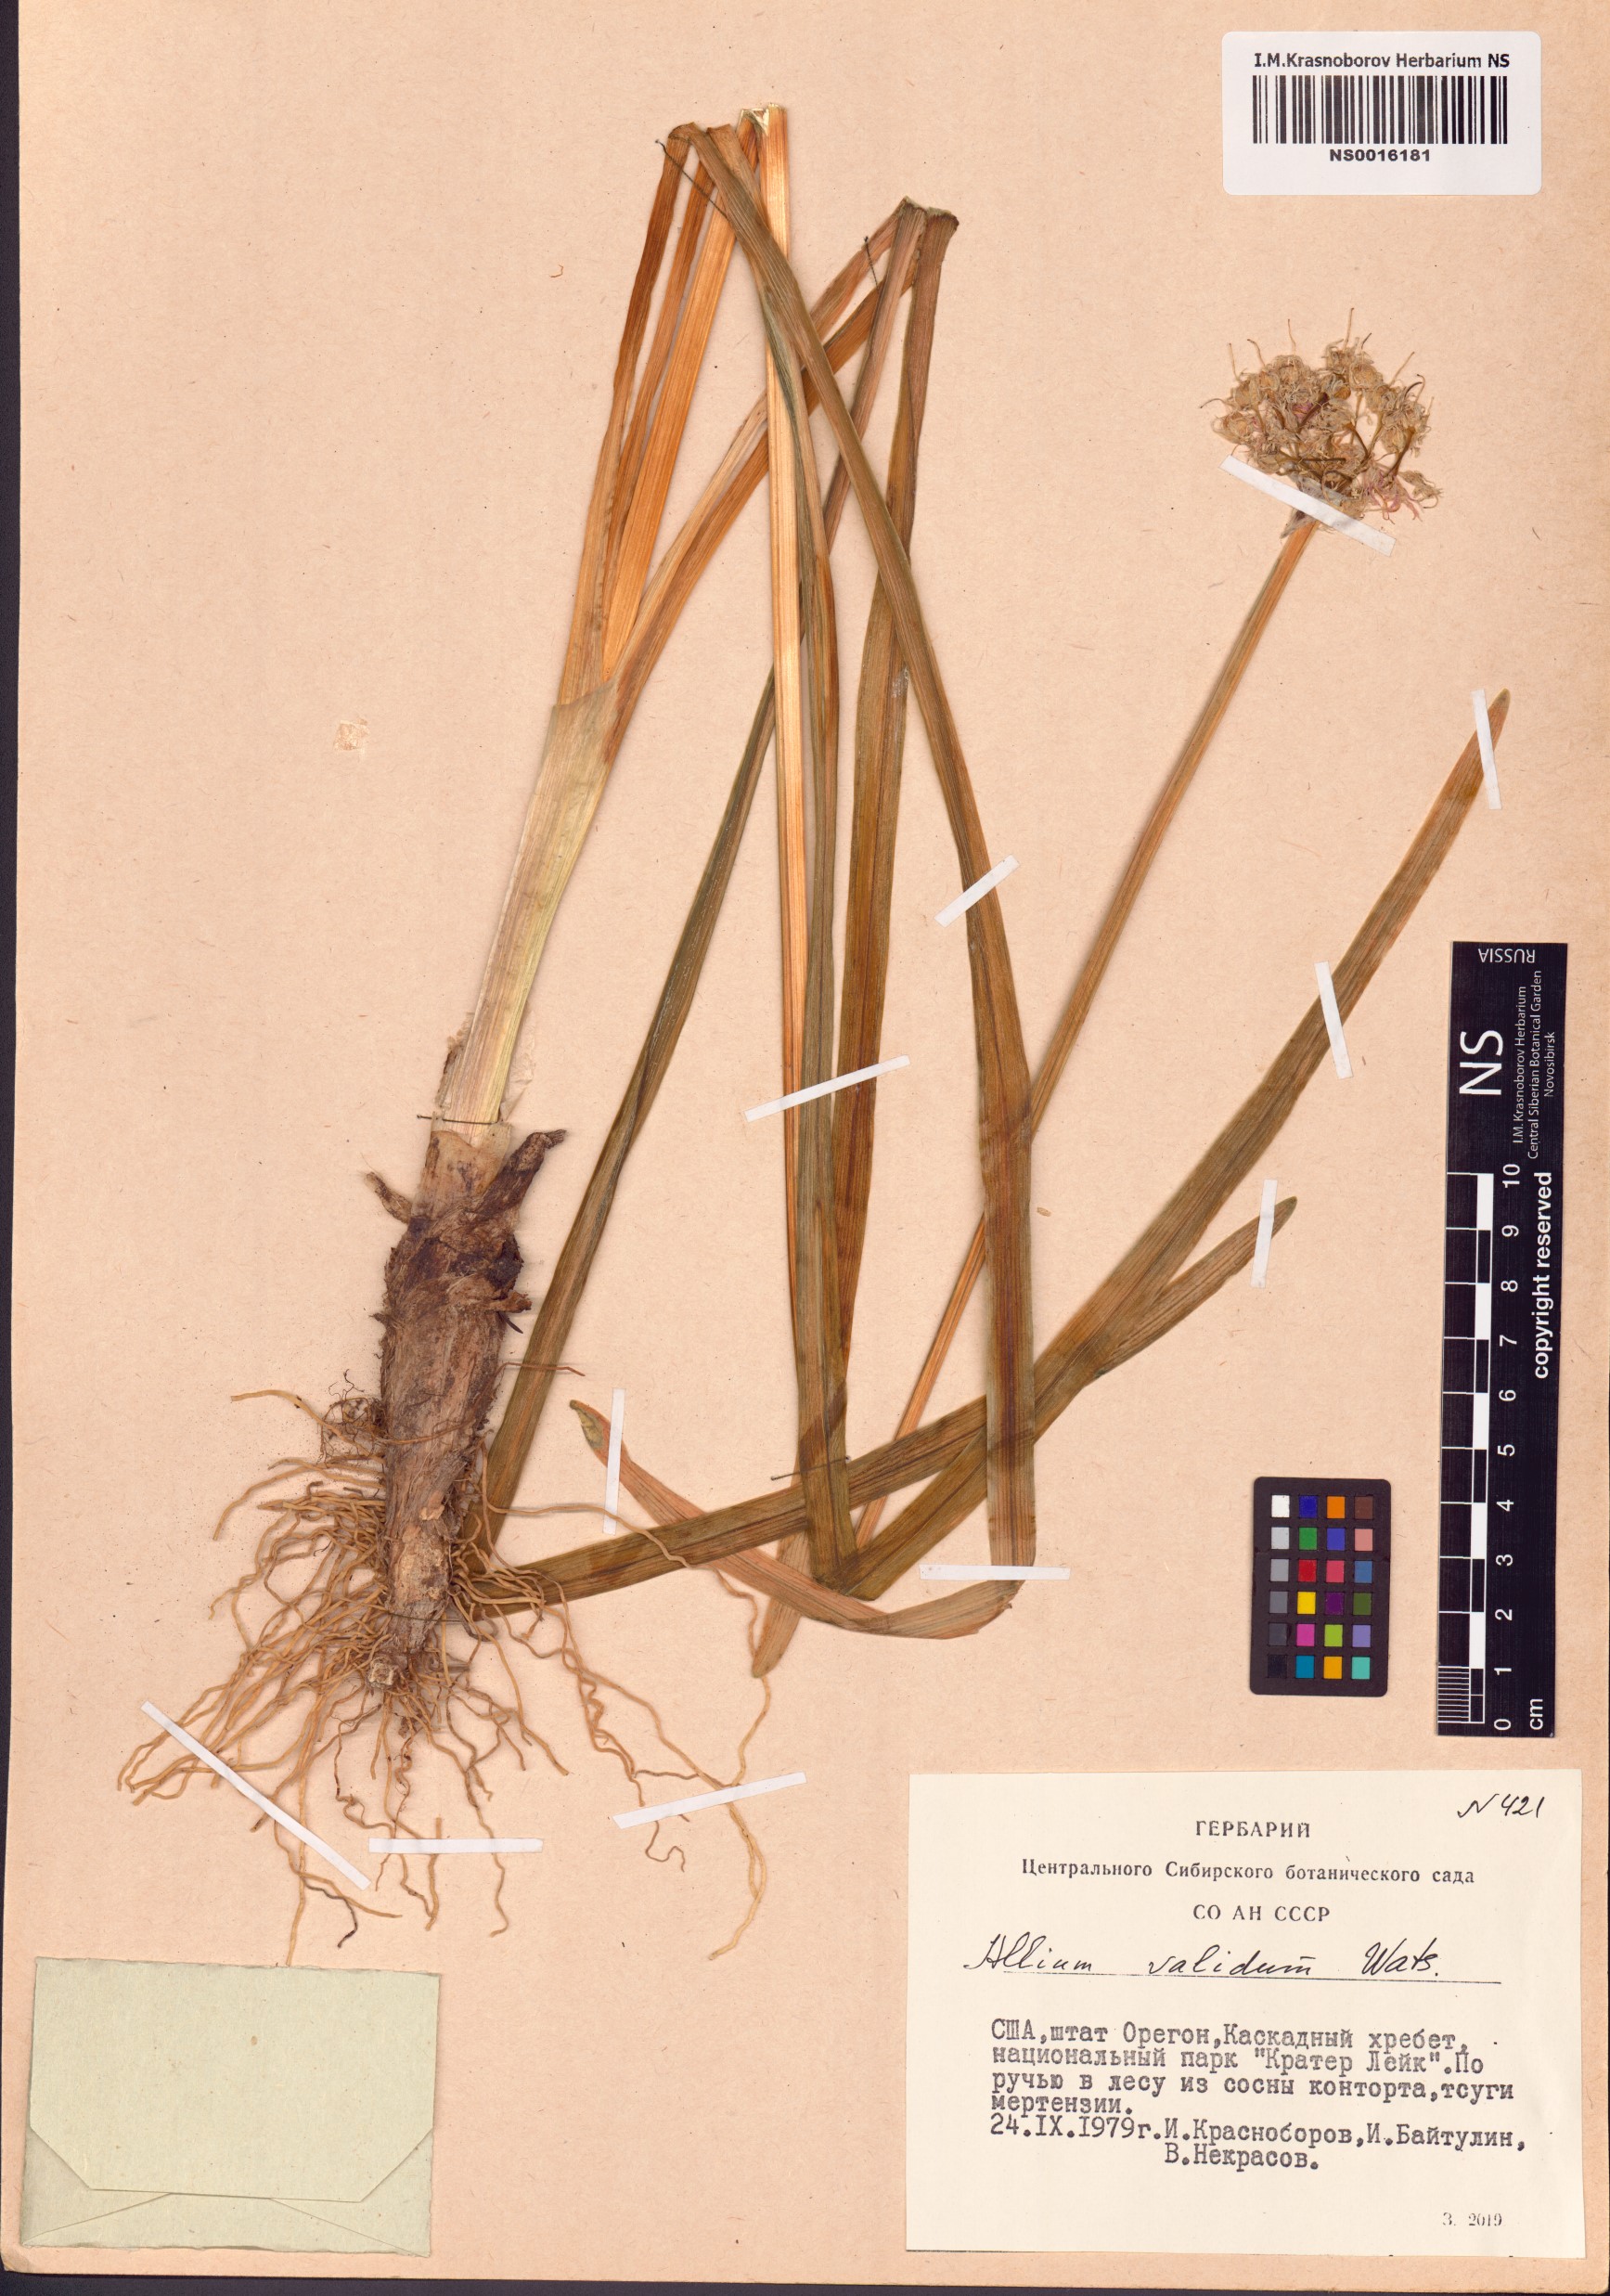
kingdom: Plantae
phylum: Tracheophyta
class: Liliopsida
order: Asparagales
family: Amaryllidaceae
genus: Allium
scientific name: Allium validum
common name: Pacific mountain onion
